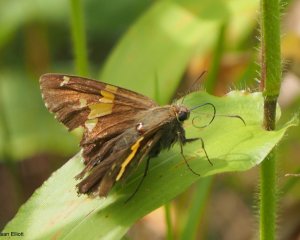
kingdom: Animalia
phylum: Arthropoda
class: Insecta
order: Lepidoptera
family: Hesperiidae
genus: Epargyreus
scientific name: Epargyreus clarus
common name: Silver-spotted Skipper
